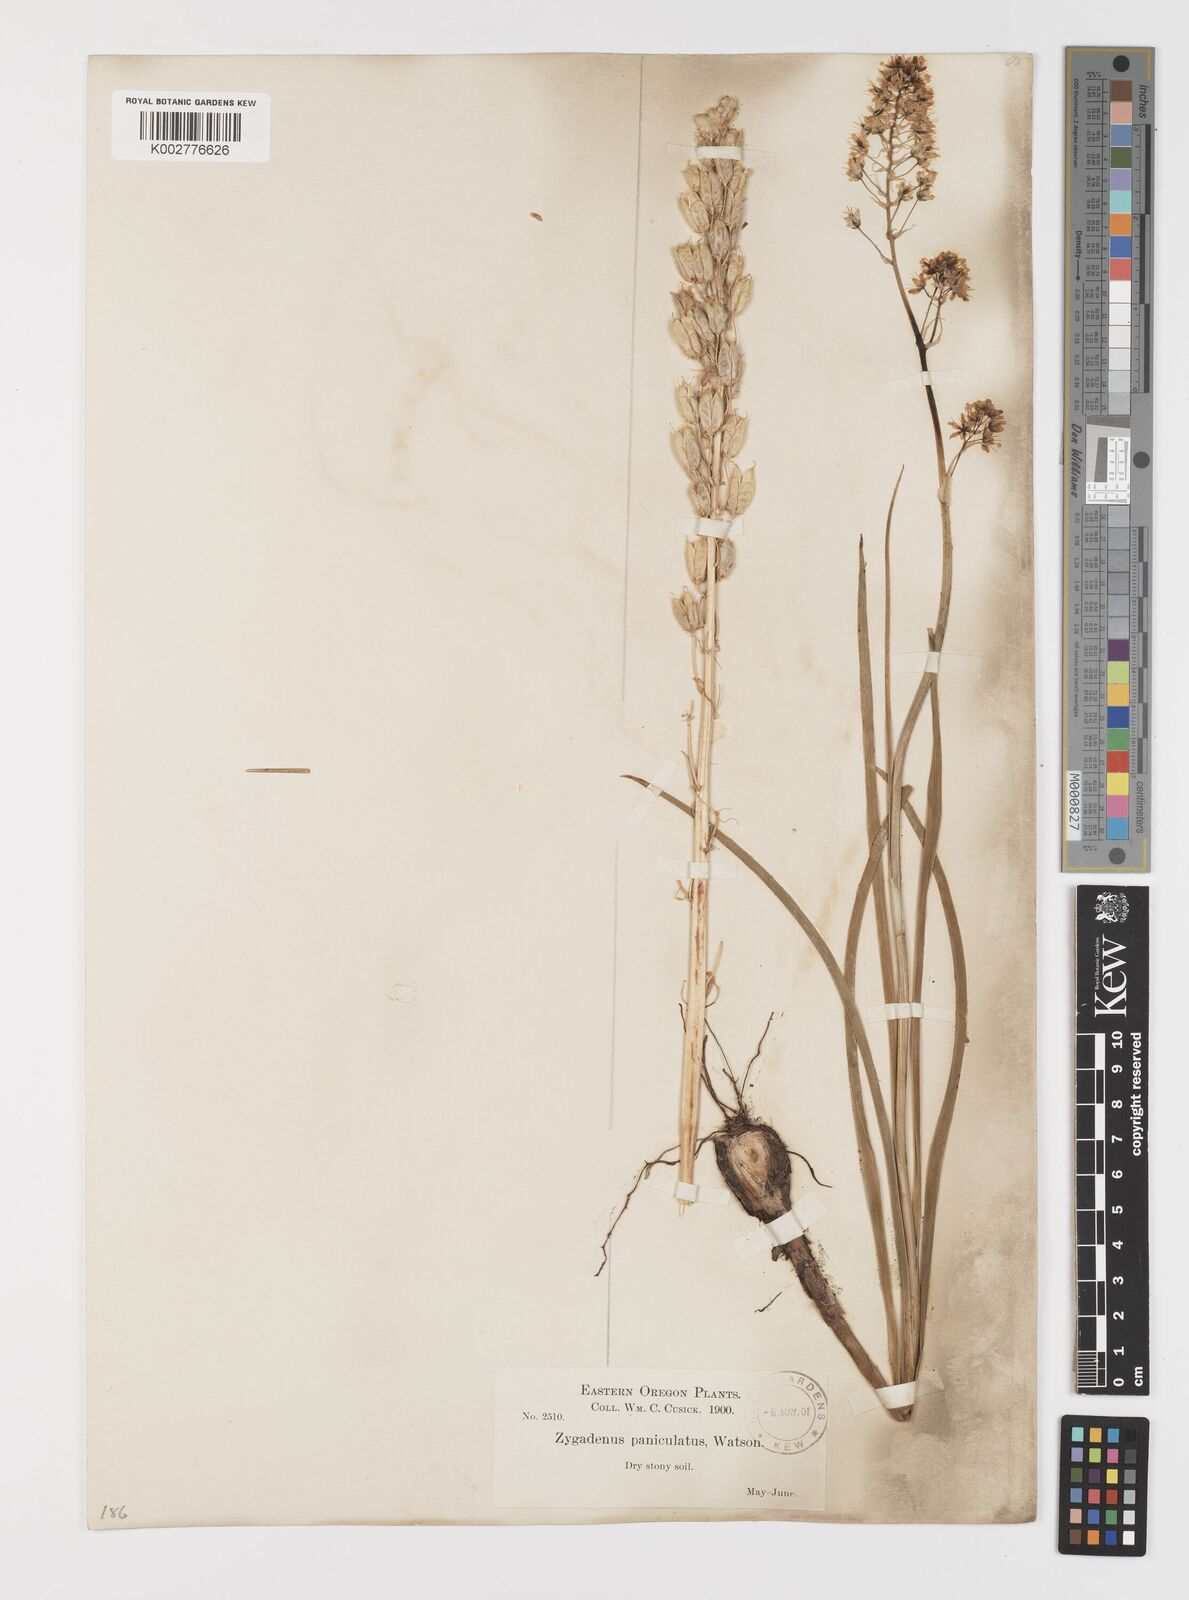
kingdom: Plantae
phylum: Tracheophyta
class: Liliopsida
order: Liliales
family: Melanthiaceae
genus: Toxicoscordion
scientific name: Toxicoscordion venenosum
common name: Meadow death camas
